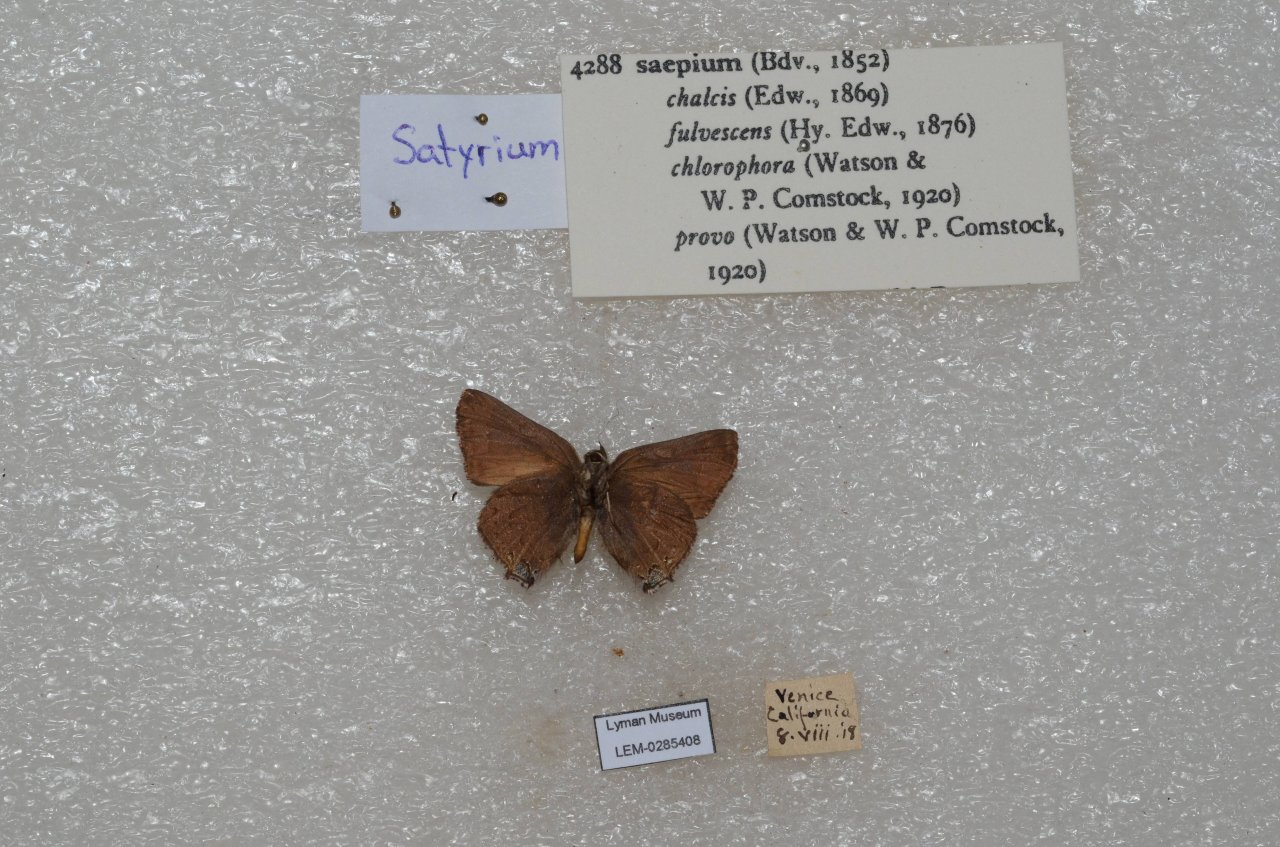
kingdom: Animalia
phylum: Arthropoda
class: Insecta
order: Lepidoptera
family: Lycaenidae
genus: Strymon
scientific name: Strymon saepium
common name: Hedgerow Hairstreak
